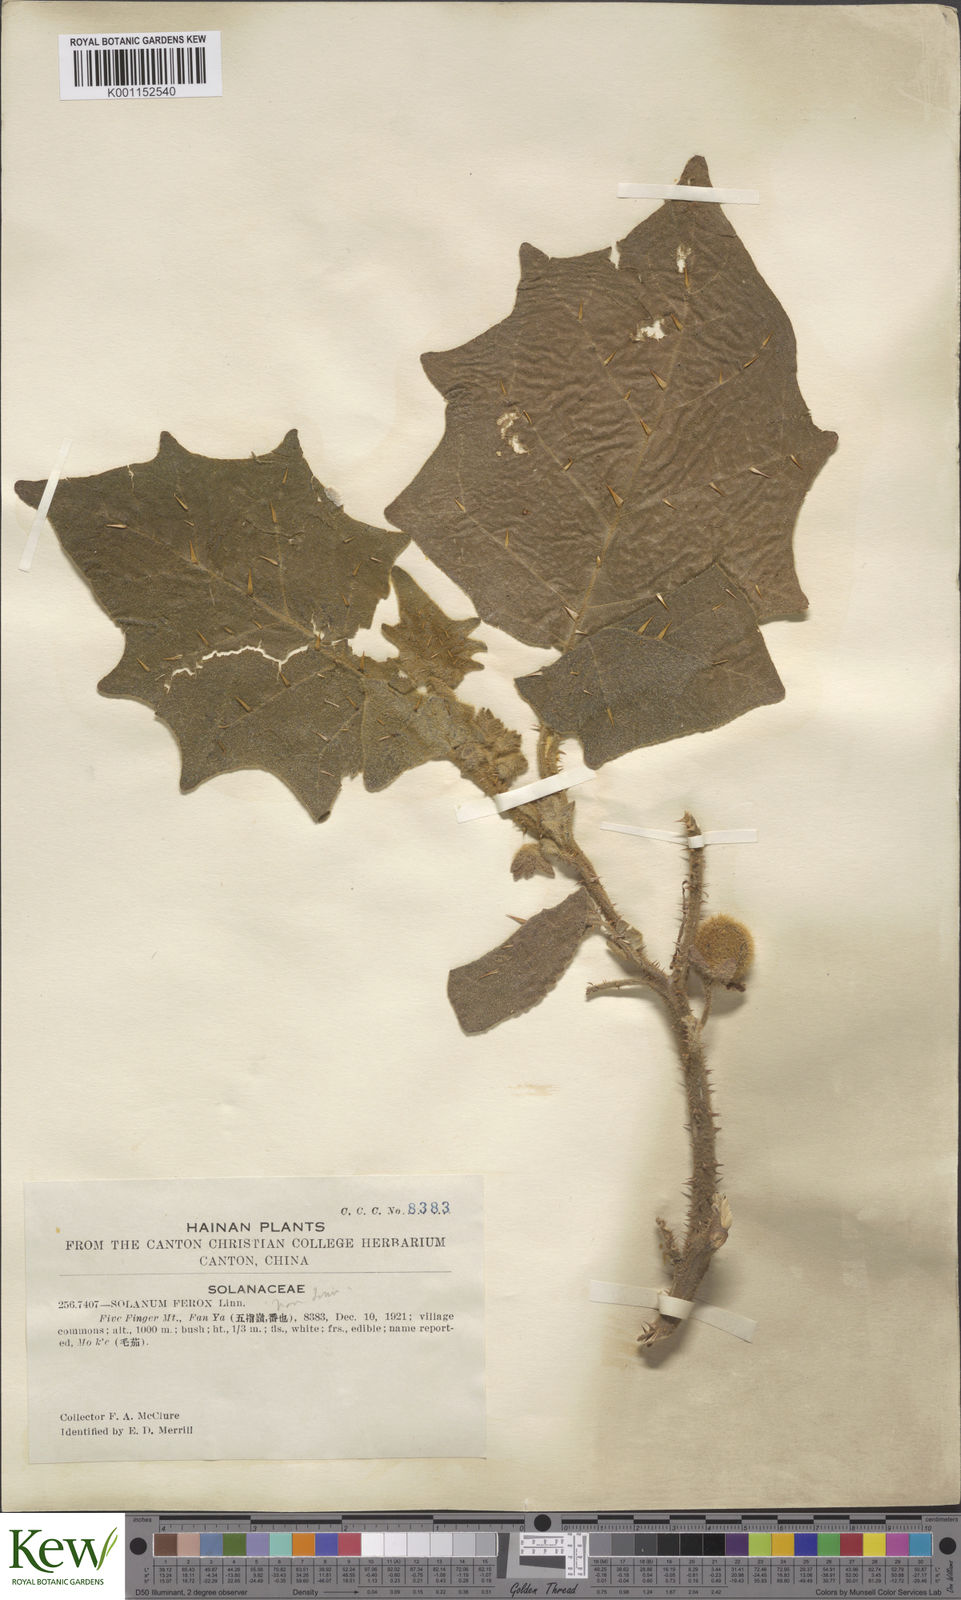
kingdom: Plantae
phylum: Tracheophyta
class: Magnoliopsida
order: Solanales
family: Solanaceae
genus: Solanum
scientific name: Solanum lasiocarpum
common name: Indian nightshade
